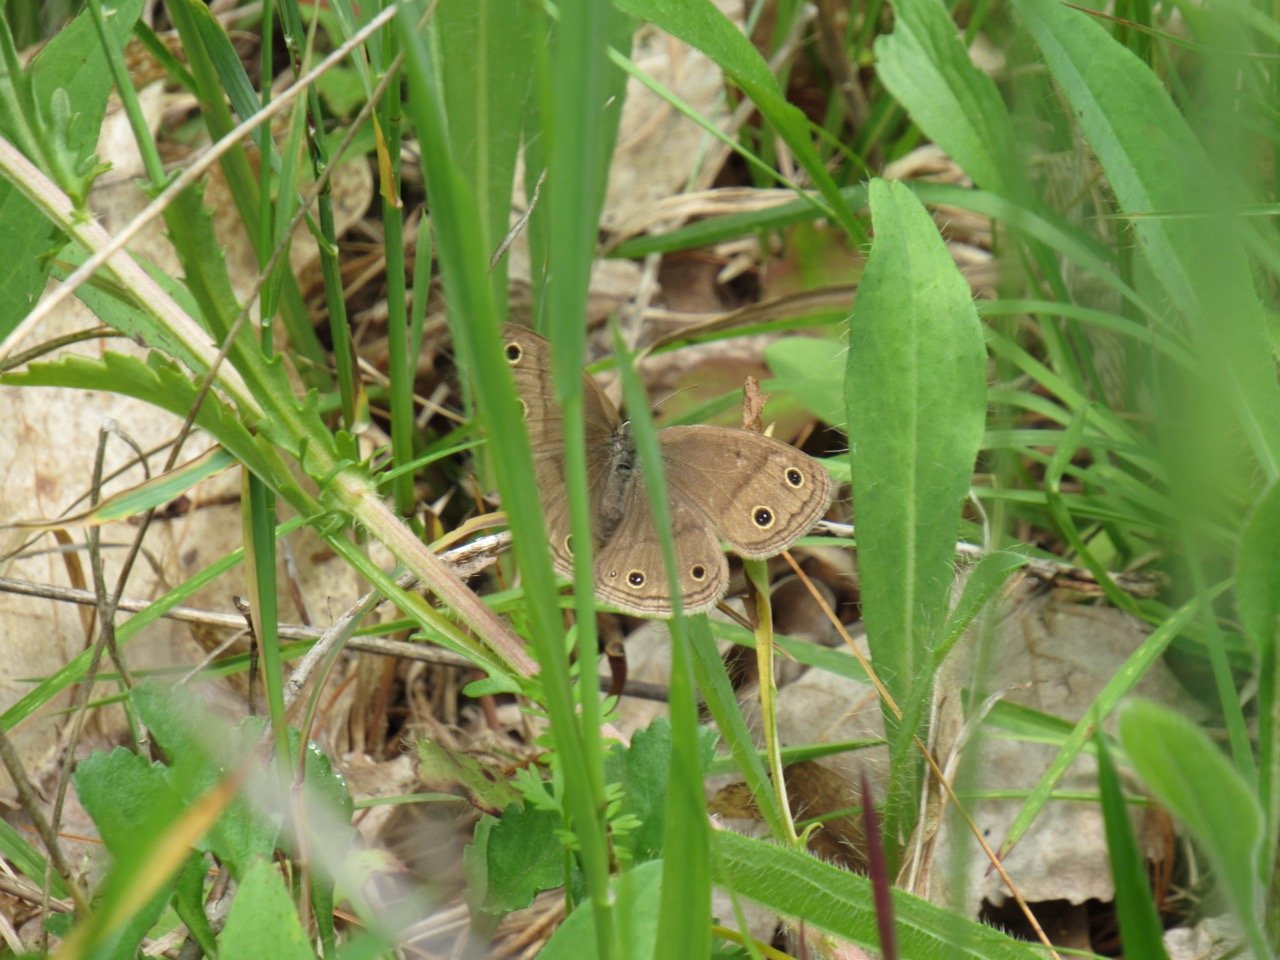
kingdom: Animalia
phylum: Arthropoda
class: Insecta
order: Lepidoptera
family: Nymphalidae
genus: Euptychia
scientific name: Euptychia cymela
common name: Little Wood Satyr
